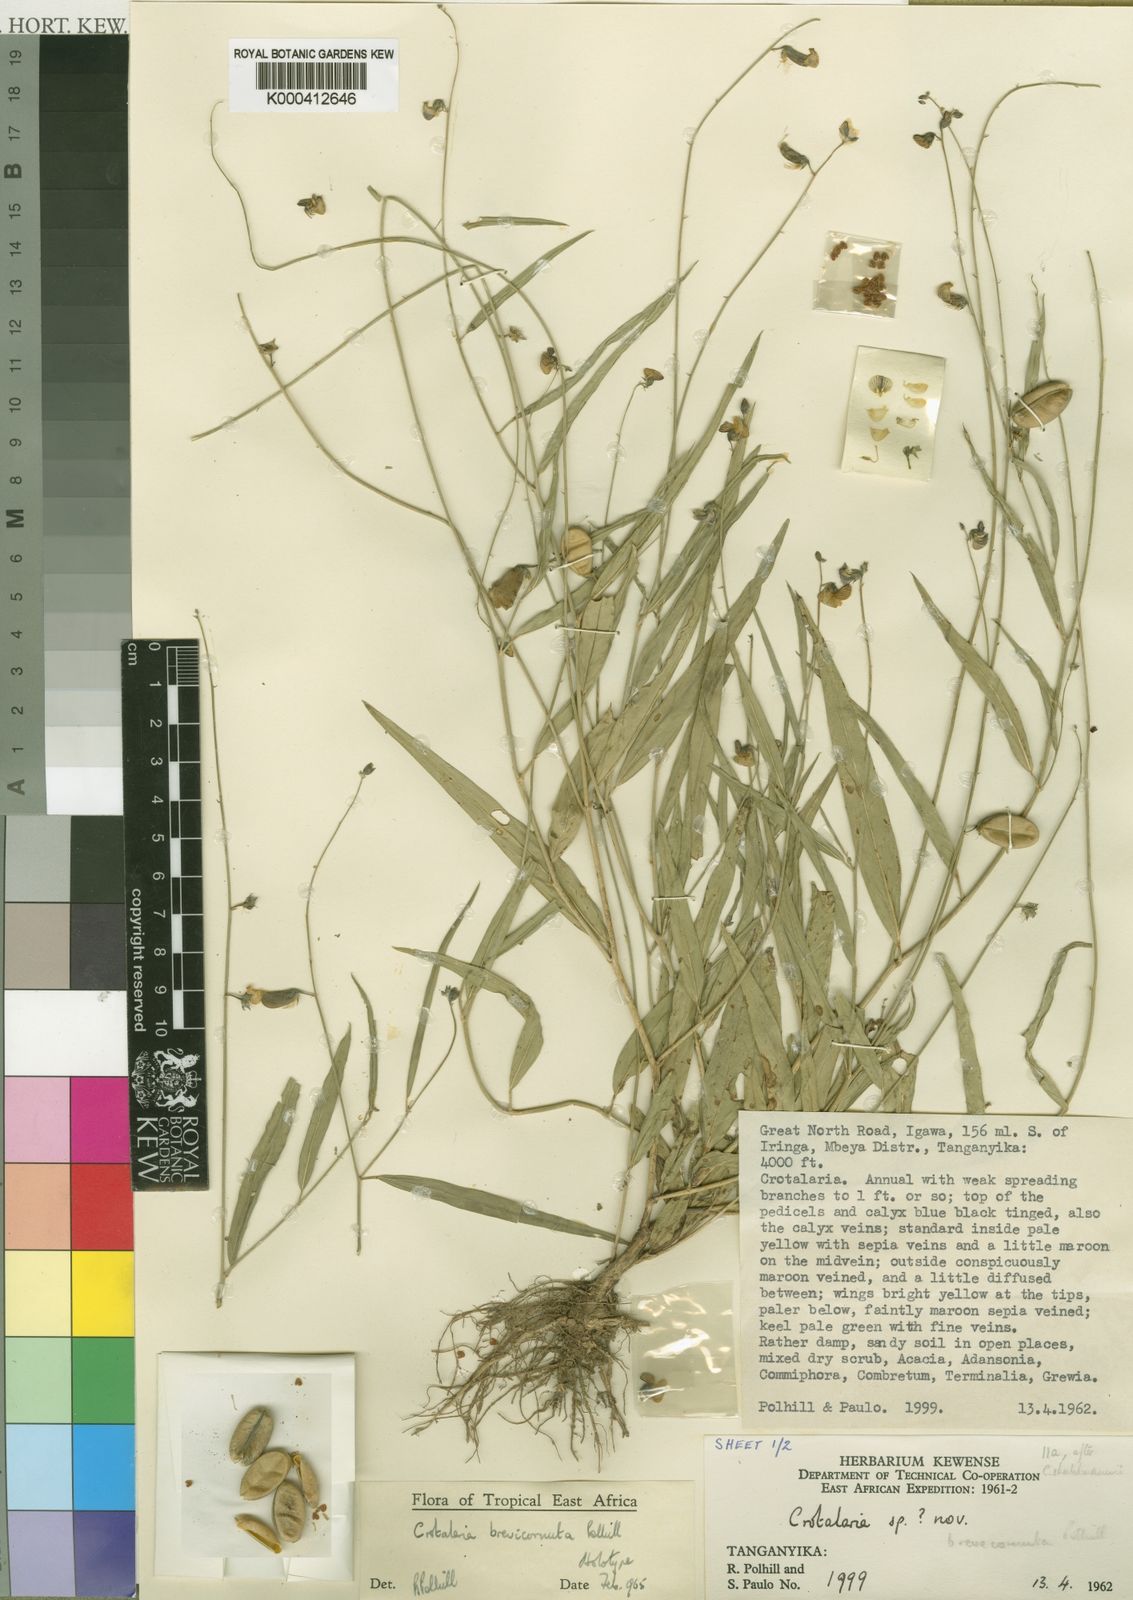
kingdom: Plantae
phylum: Tracheophyta
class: Magnoliopsida
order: Fabales
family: Fabaceae
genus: Crotalaria
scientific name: Crotalaria brevicornuta
